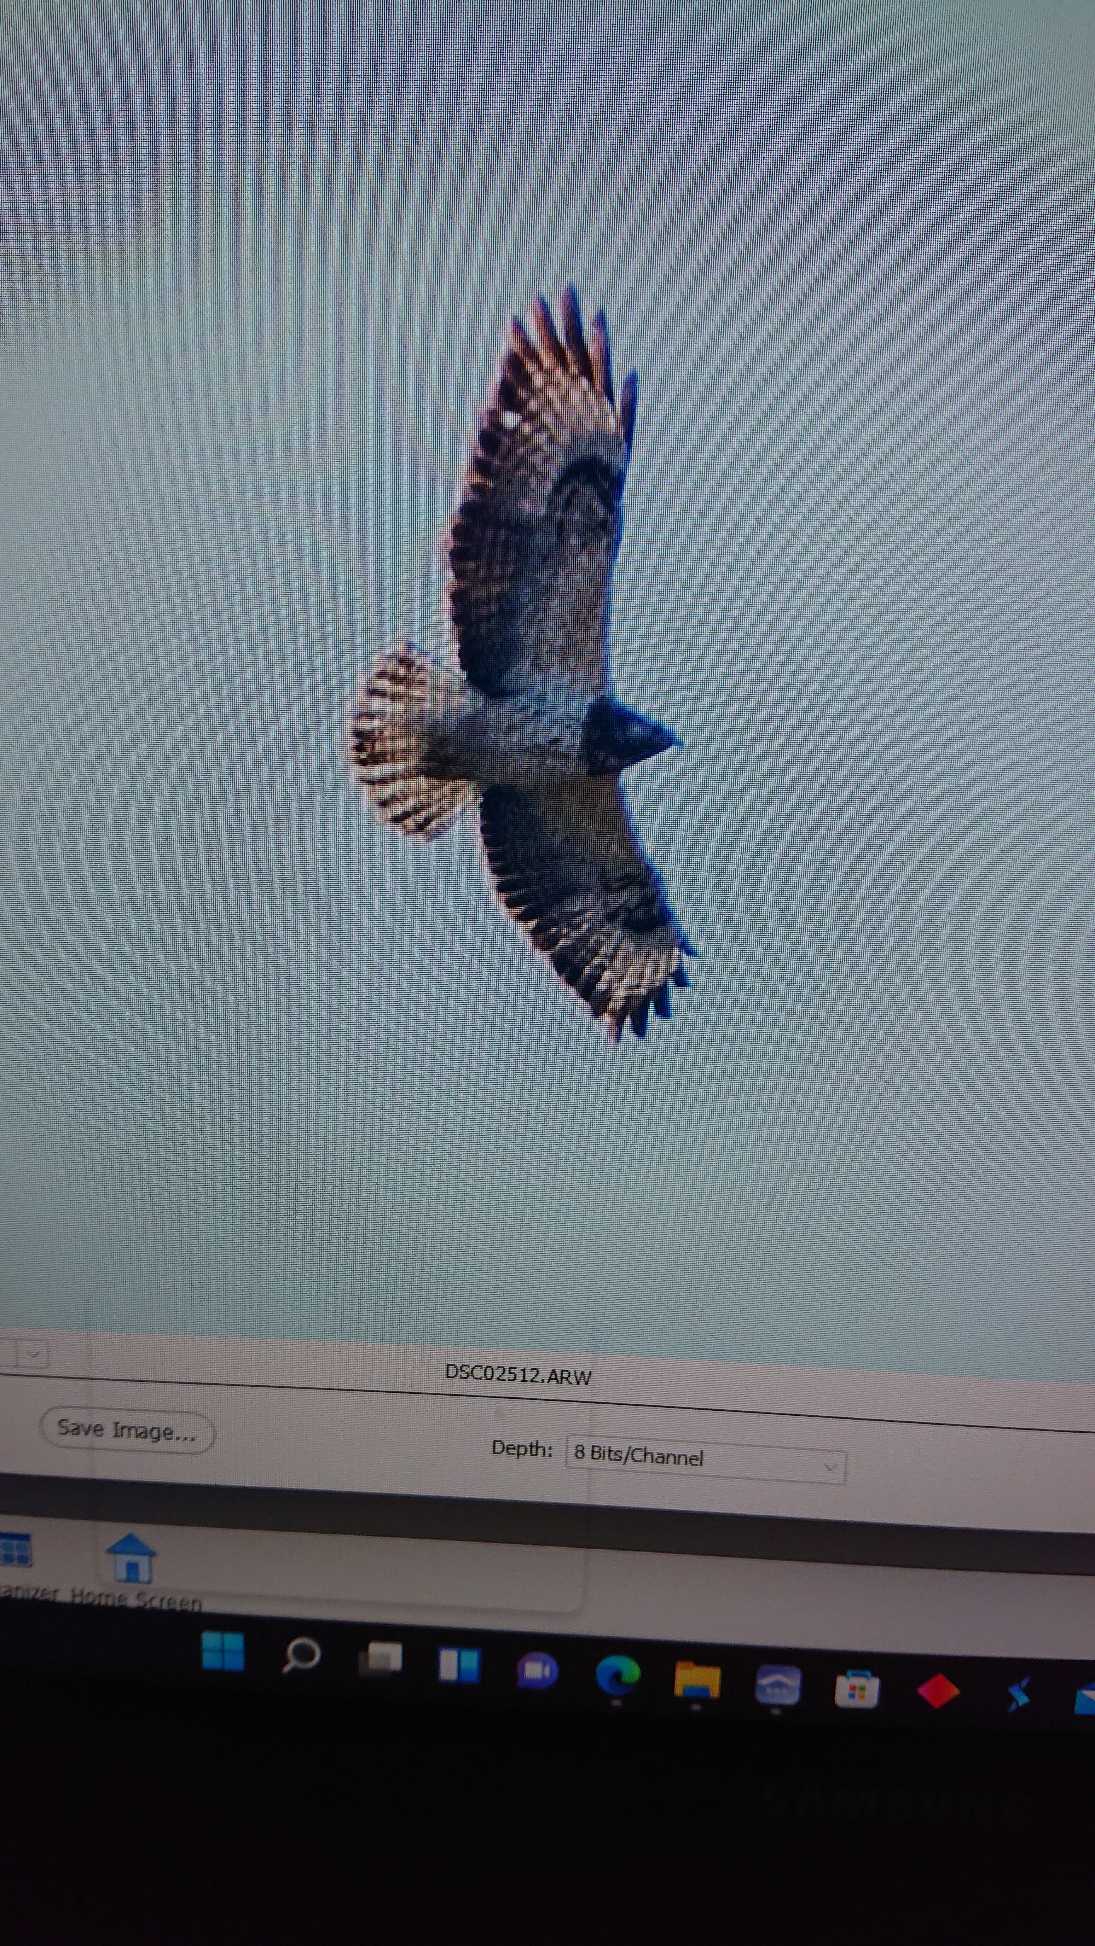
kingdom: Animalia
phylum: Chordata
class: Aves
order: Accipitriformes
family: Accipitridae
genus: Buteo
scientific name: Buteo buteo
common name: Musvåge
